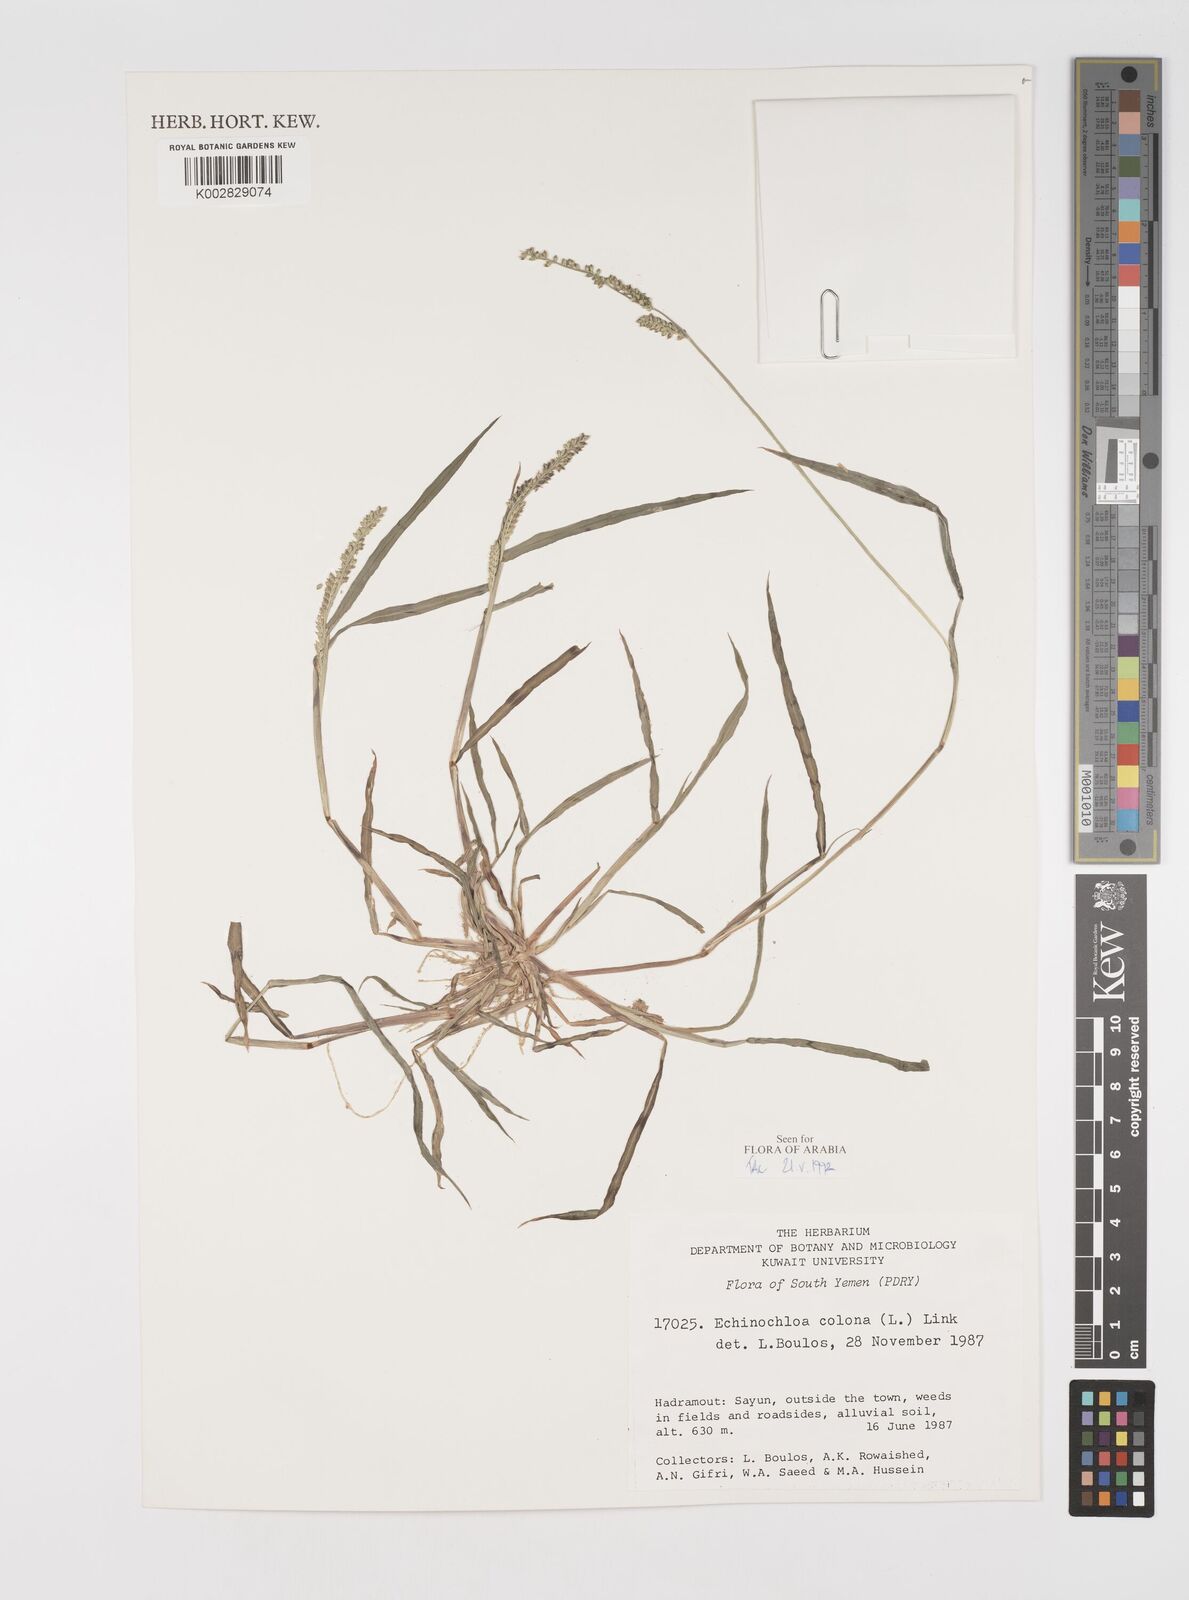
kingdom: Plantae
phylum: Tracheophyta
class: Liliopsida
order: Poales
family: Poaceae
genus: Echinochloa
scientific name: Echinochloa colonum
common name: Jungle rice
